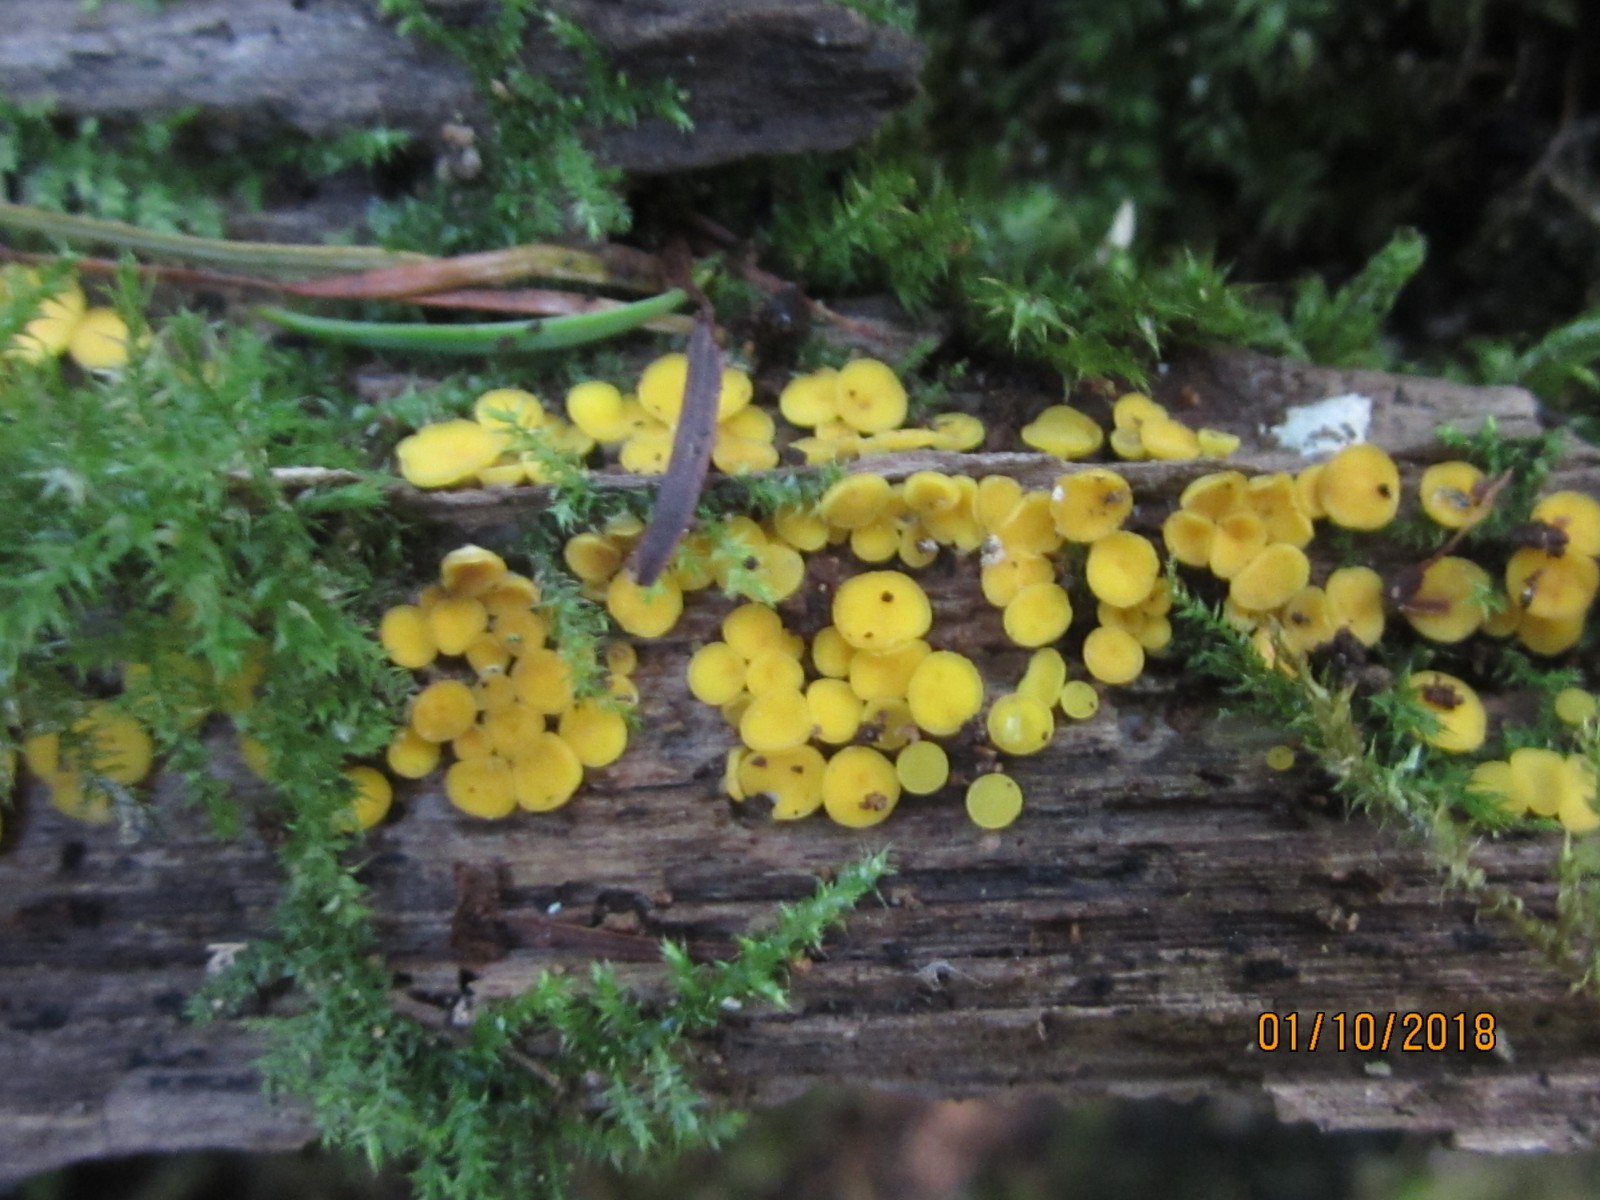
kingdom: Fungi
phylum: Ascomycota
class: Leotiomycetes
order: Helotiales
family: Pezizellaceae
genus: Calycina
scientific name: Calycina citrina
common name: almindelig gulskive
